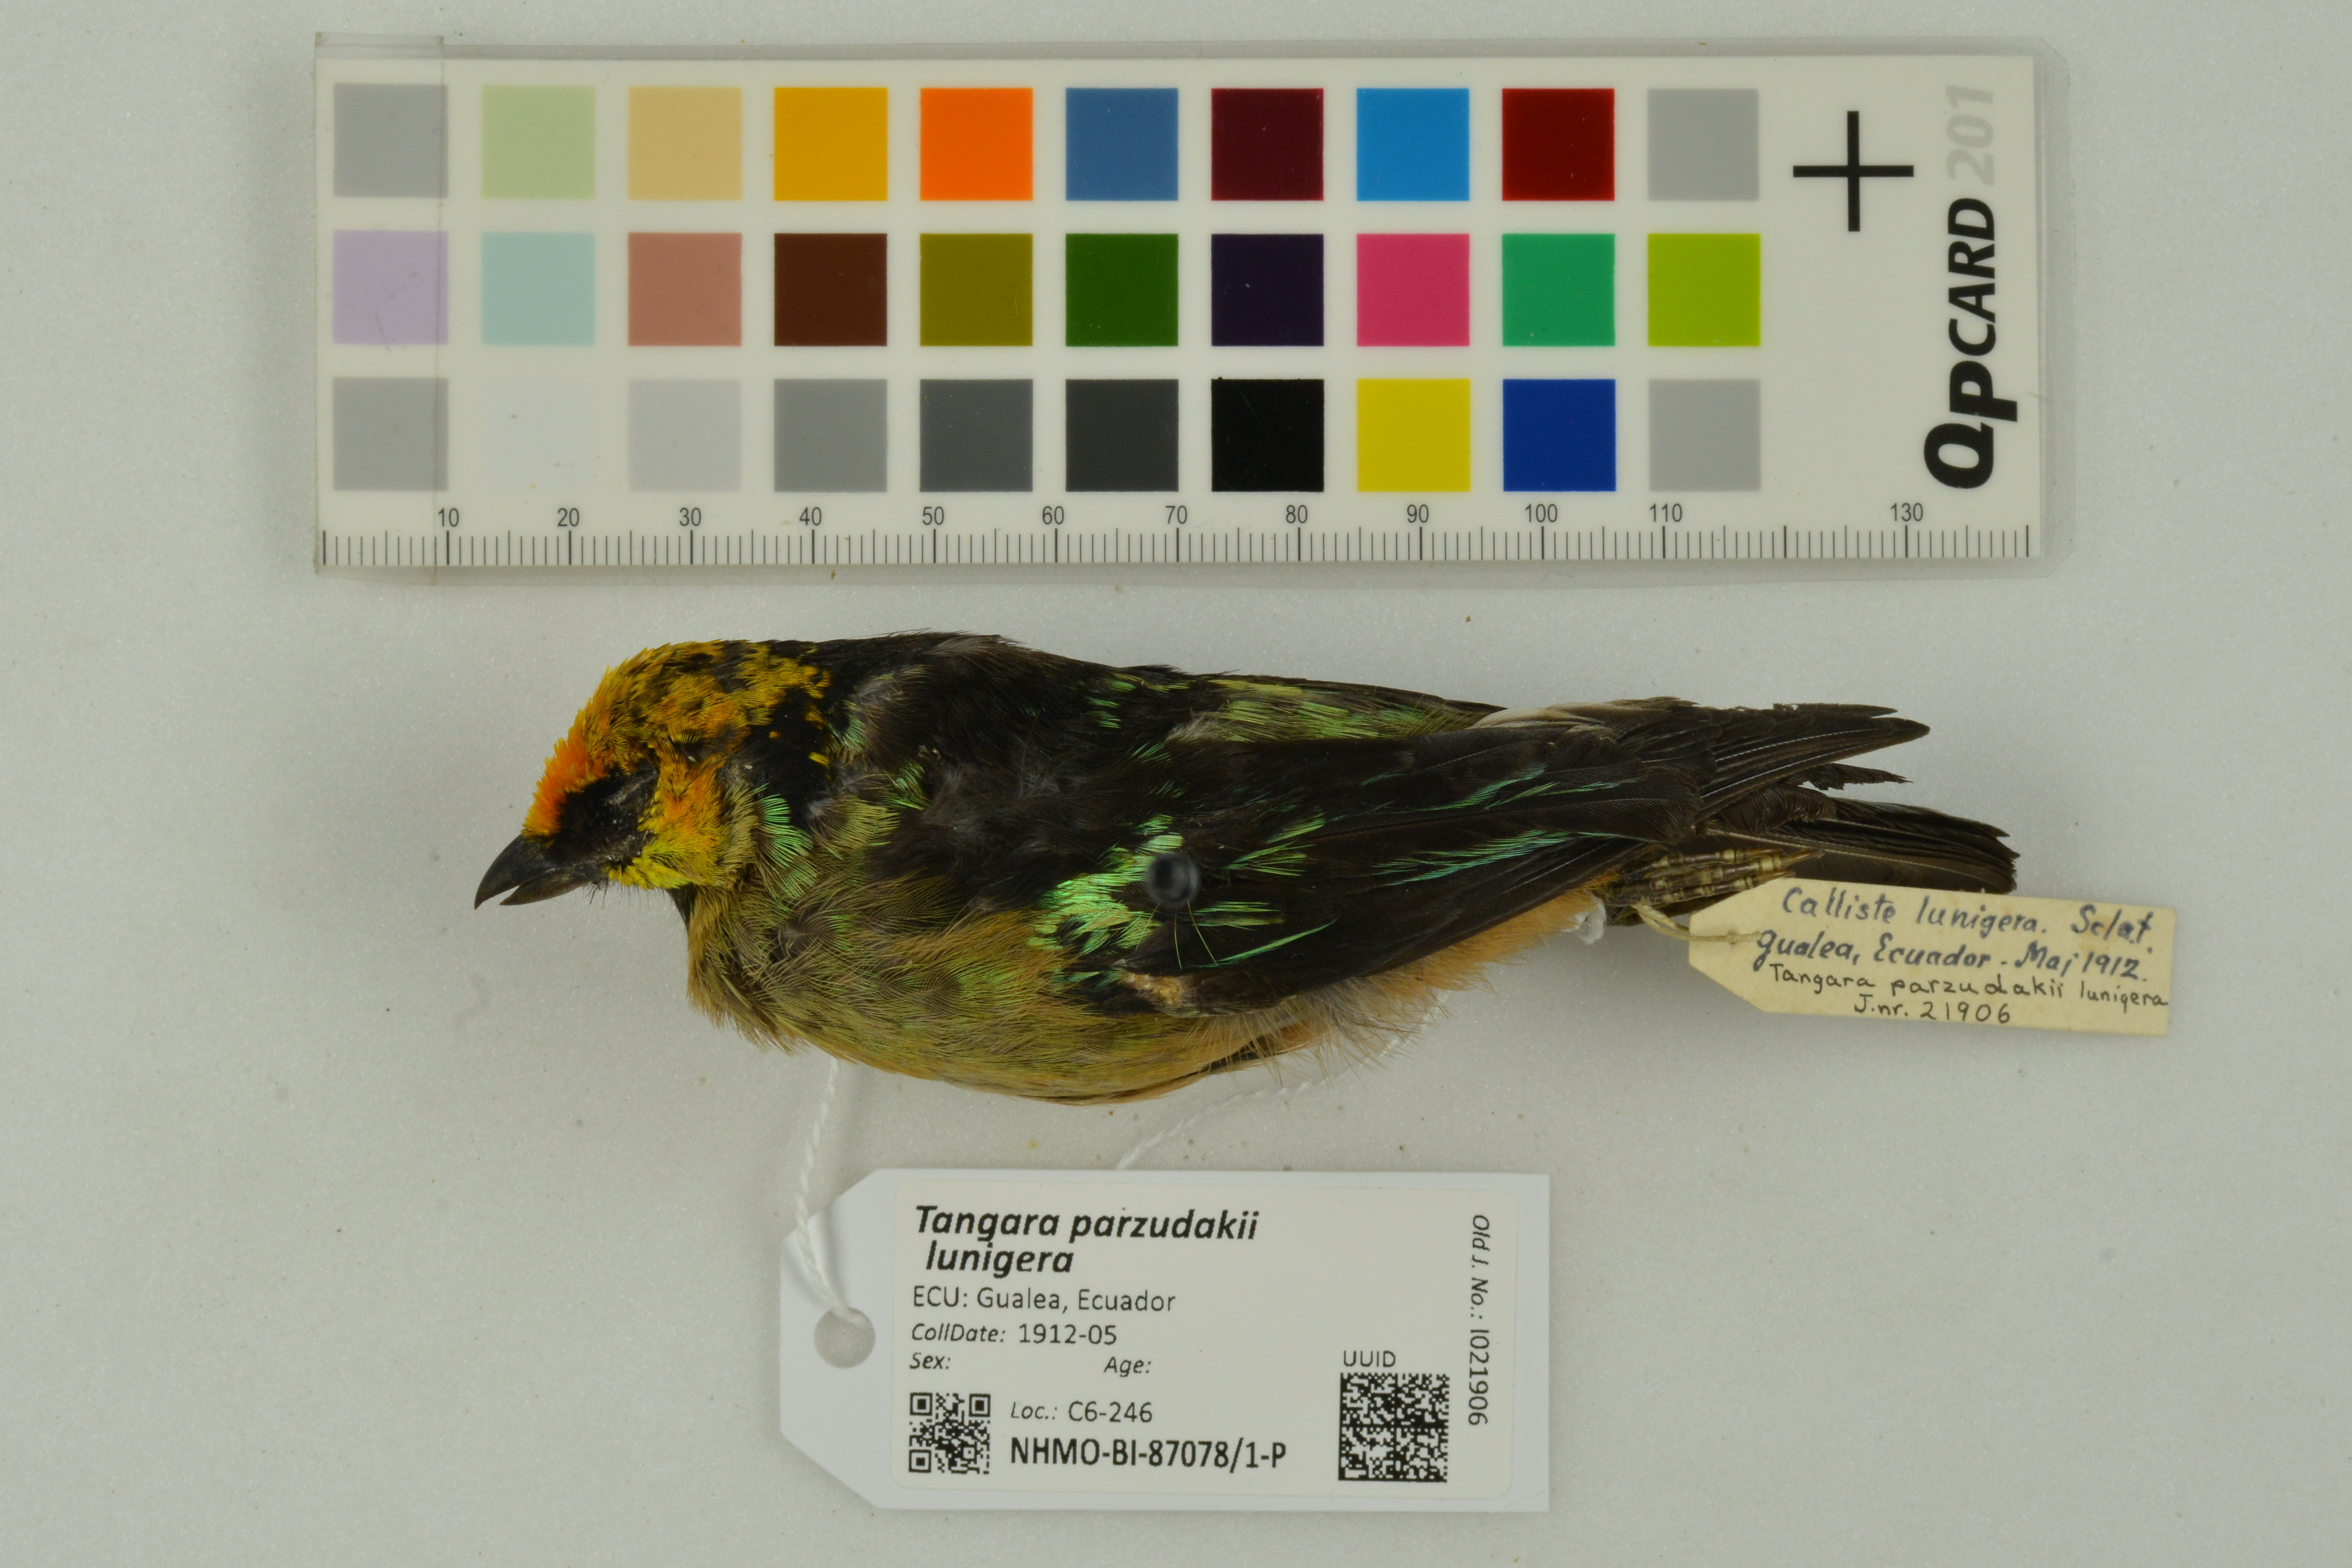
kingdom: Animalia
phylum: Chordata
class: Aves
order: Passeriformes
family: Thraupidae
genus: Tangara
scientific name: Tangara parzudakii
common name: Flame-faced tanager
